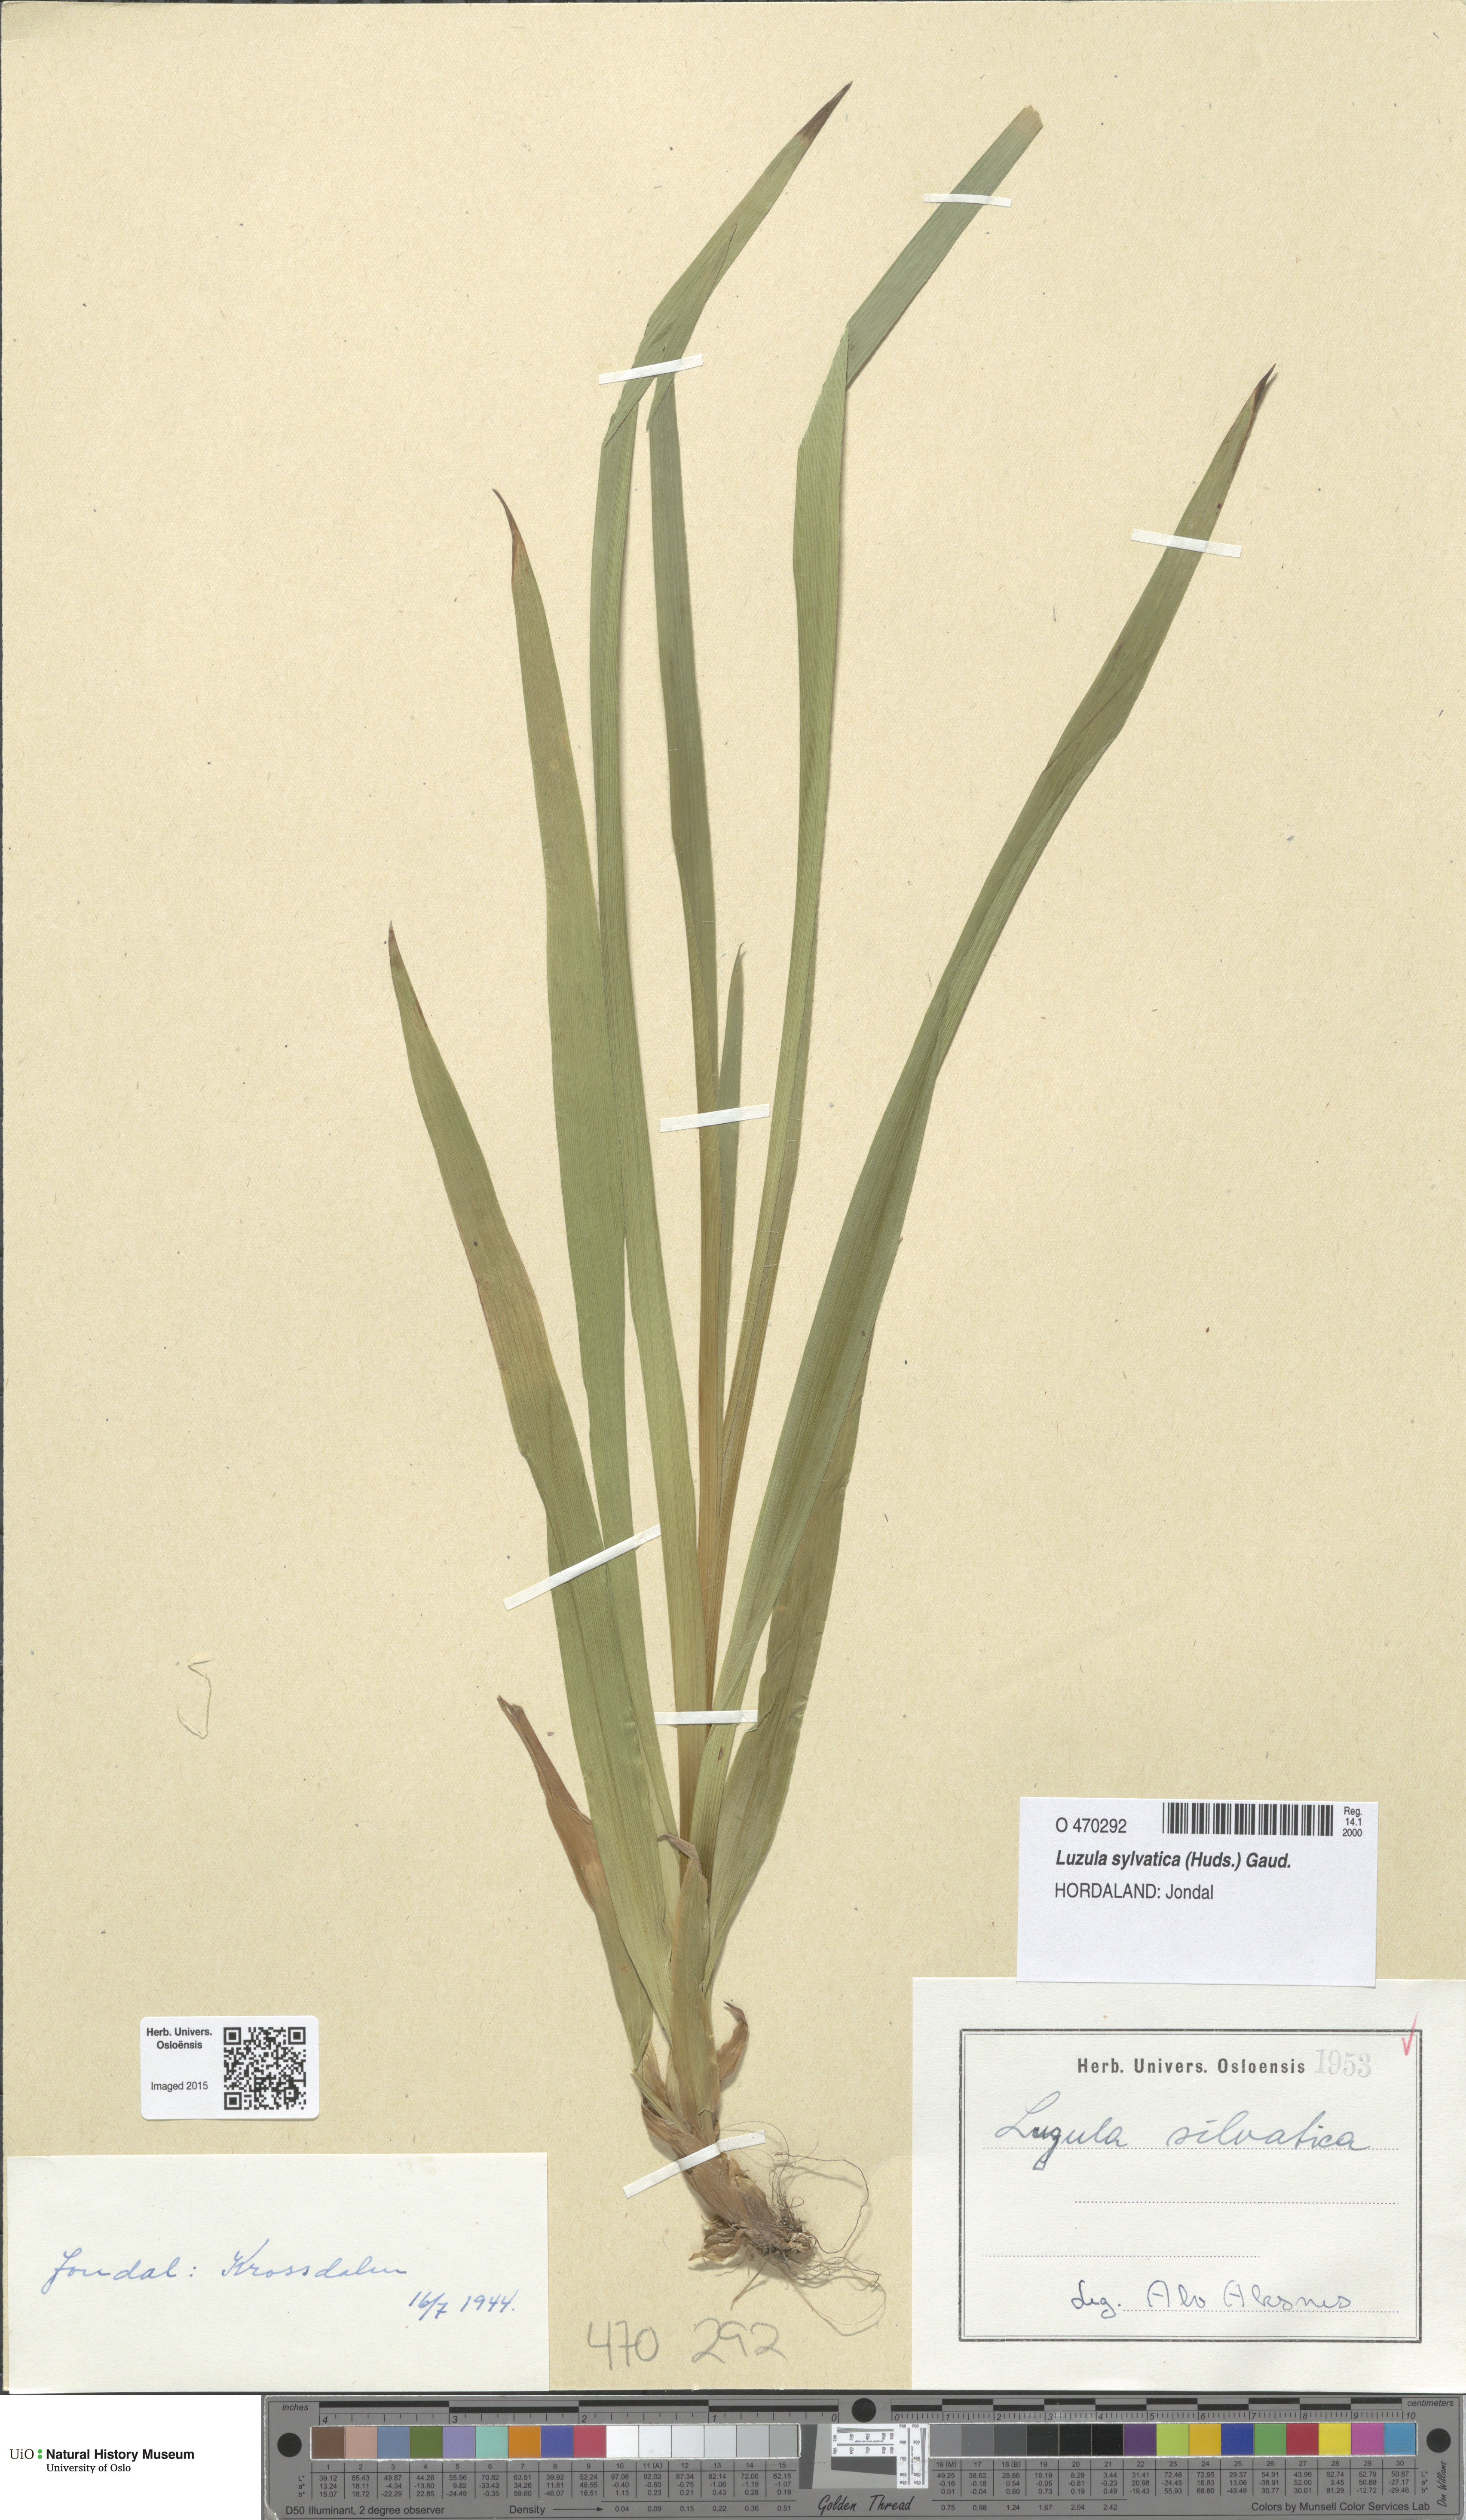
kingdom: Plantae
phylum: Tracheophyta
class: Liliopsida
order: Poales
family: Juncaceae
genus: Luzula
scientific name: Luzula sylvatica
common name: Great wood-rush
